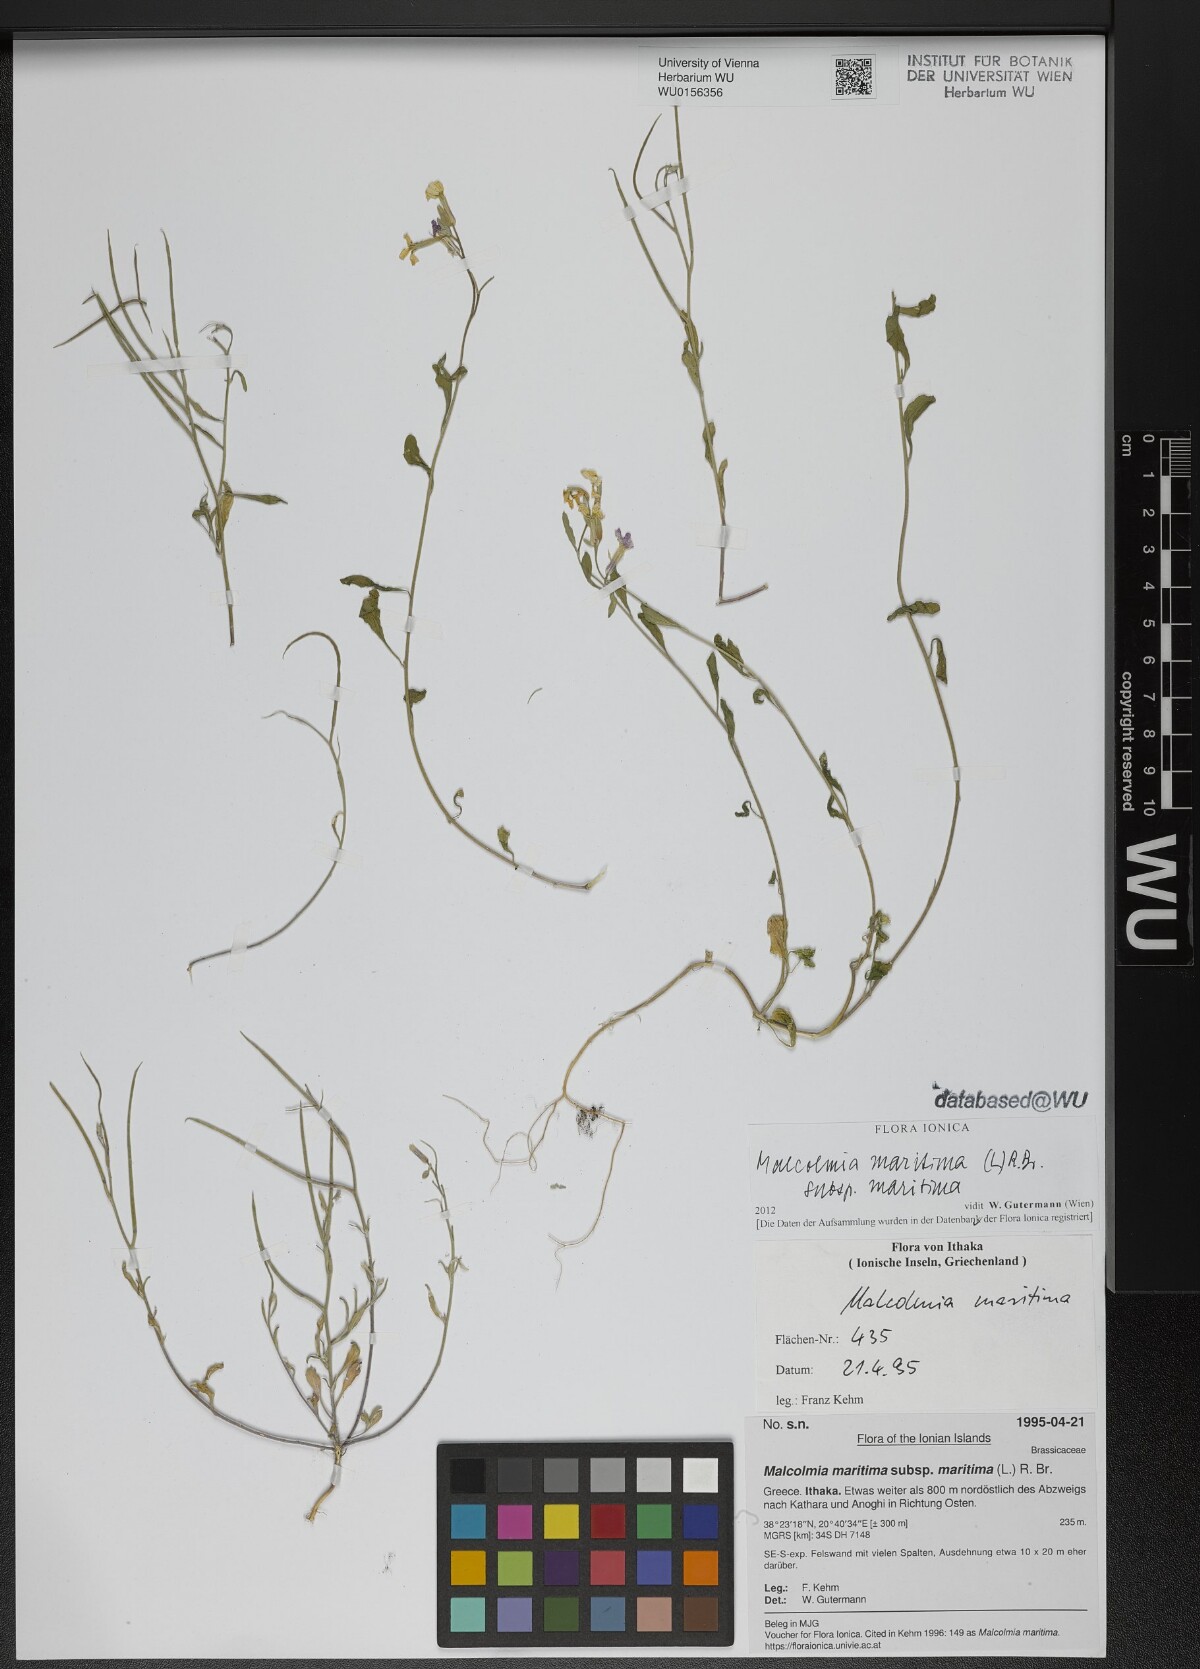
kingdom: Plantae
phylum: Tracheophyta
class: Magnoliopsida
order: Brassicales
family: Brassicaceae
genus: Malcolmia
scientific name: Malcolmia maritima
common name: Virginia stock
